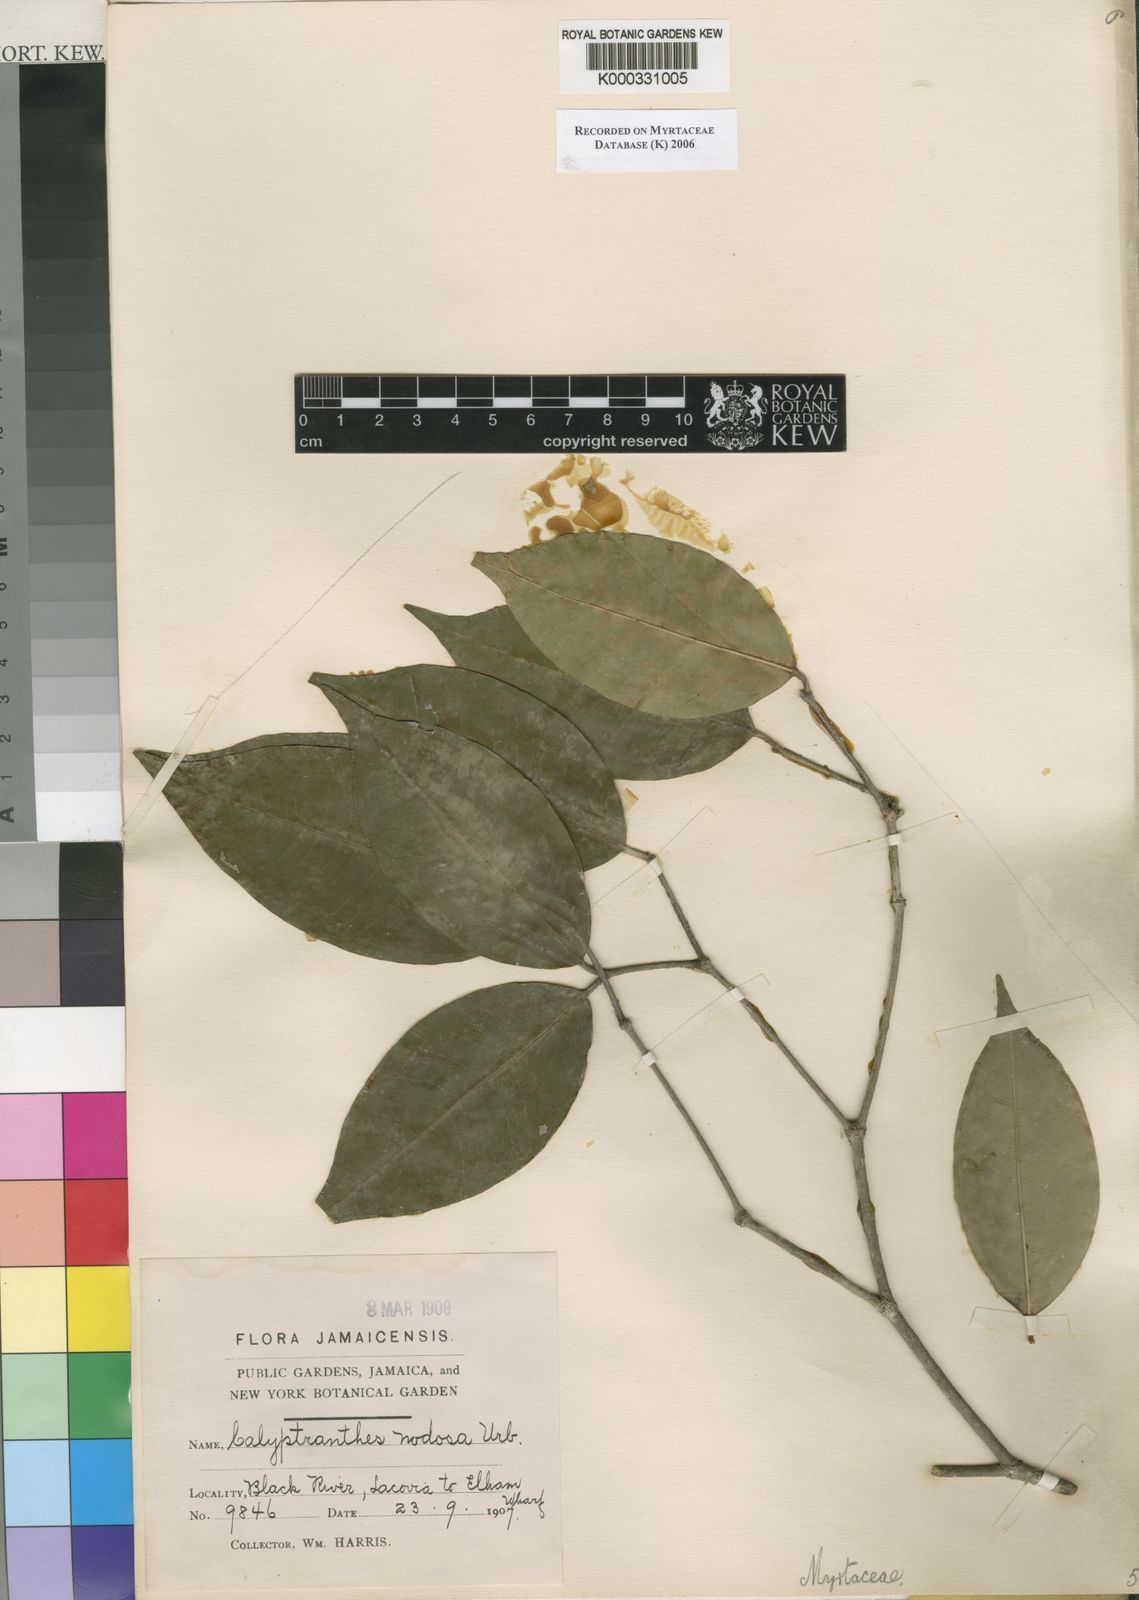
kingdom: Plantae
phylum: Tracheophyta
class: Magnoliopsida
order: Myrtales
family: Myrtaceae
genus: Myrcia
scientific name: Myrcia nodosa
